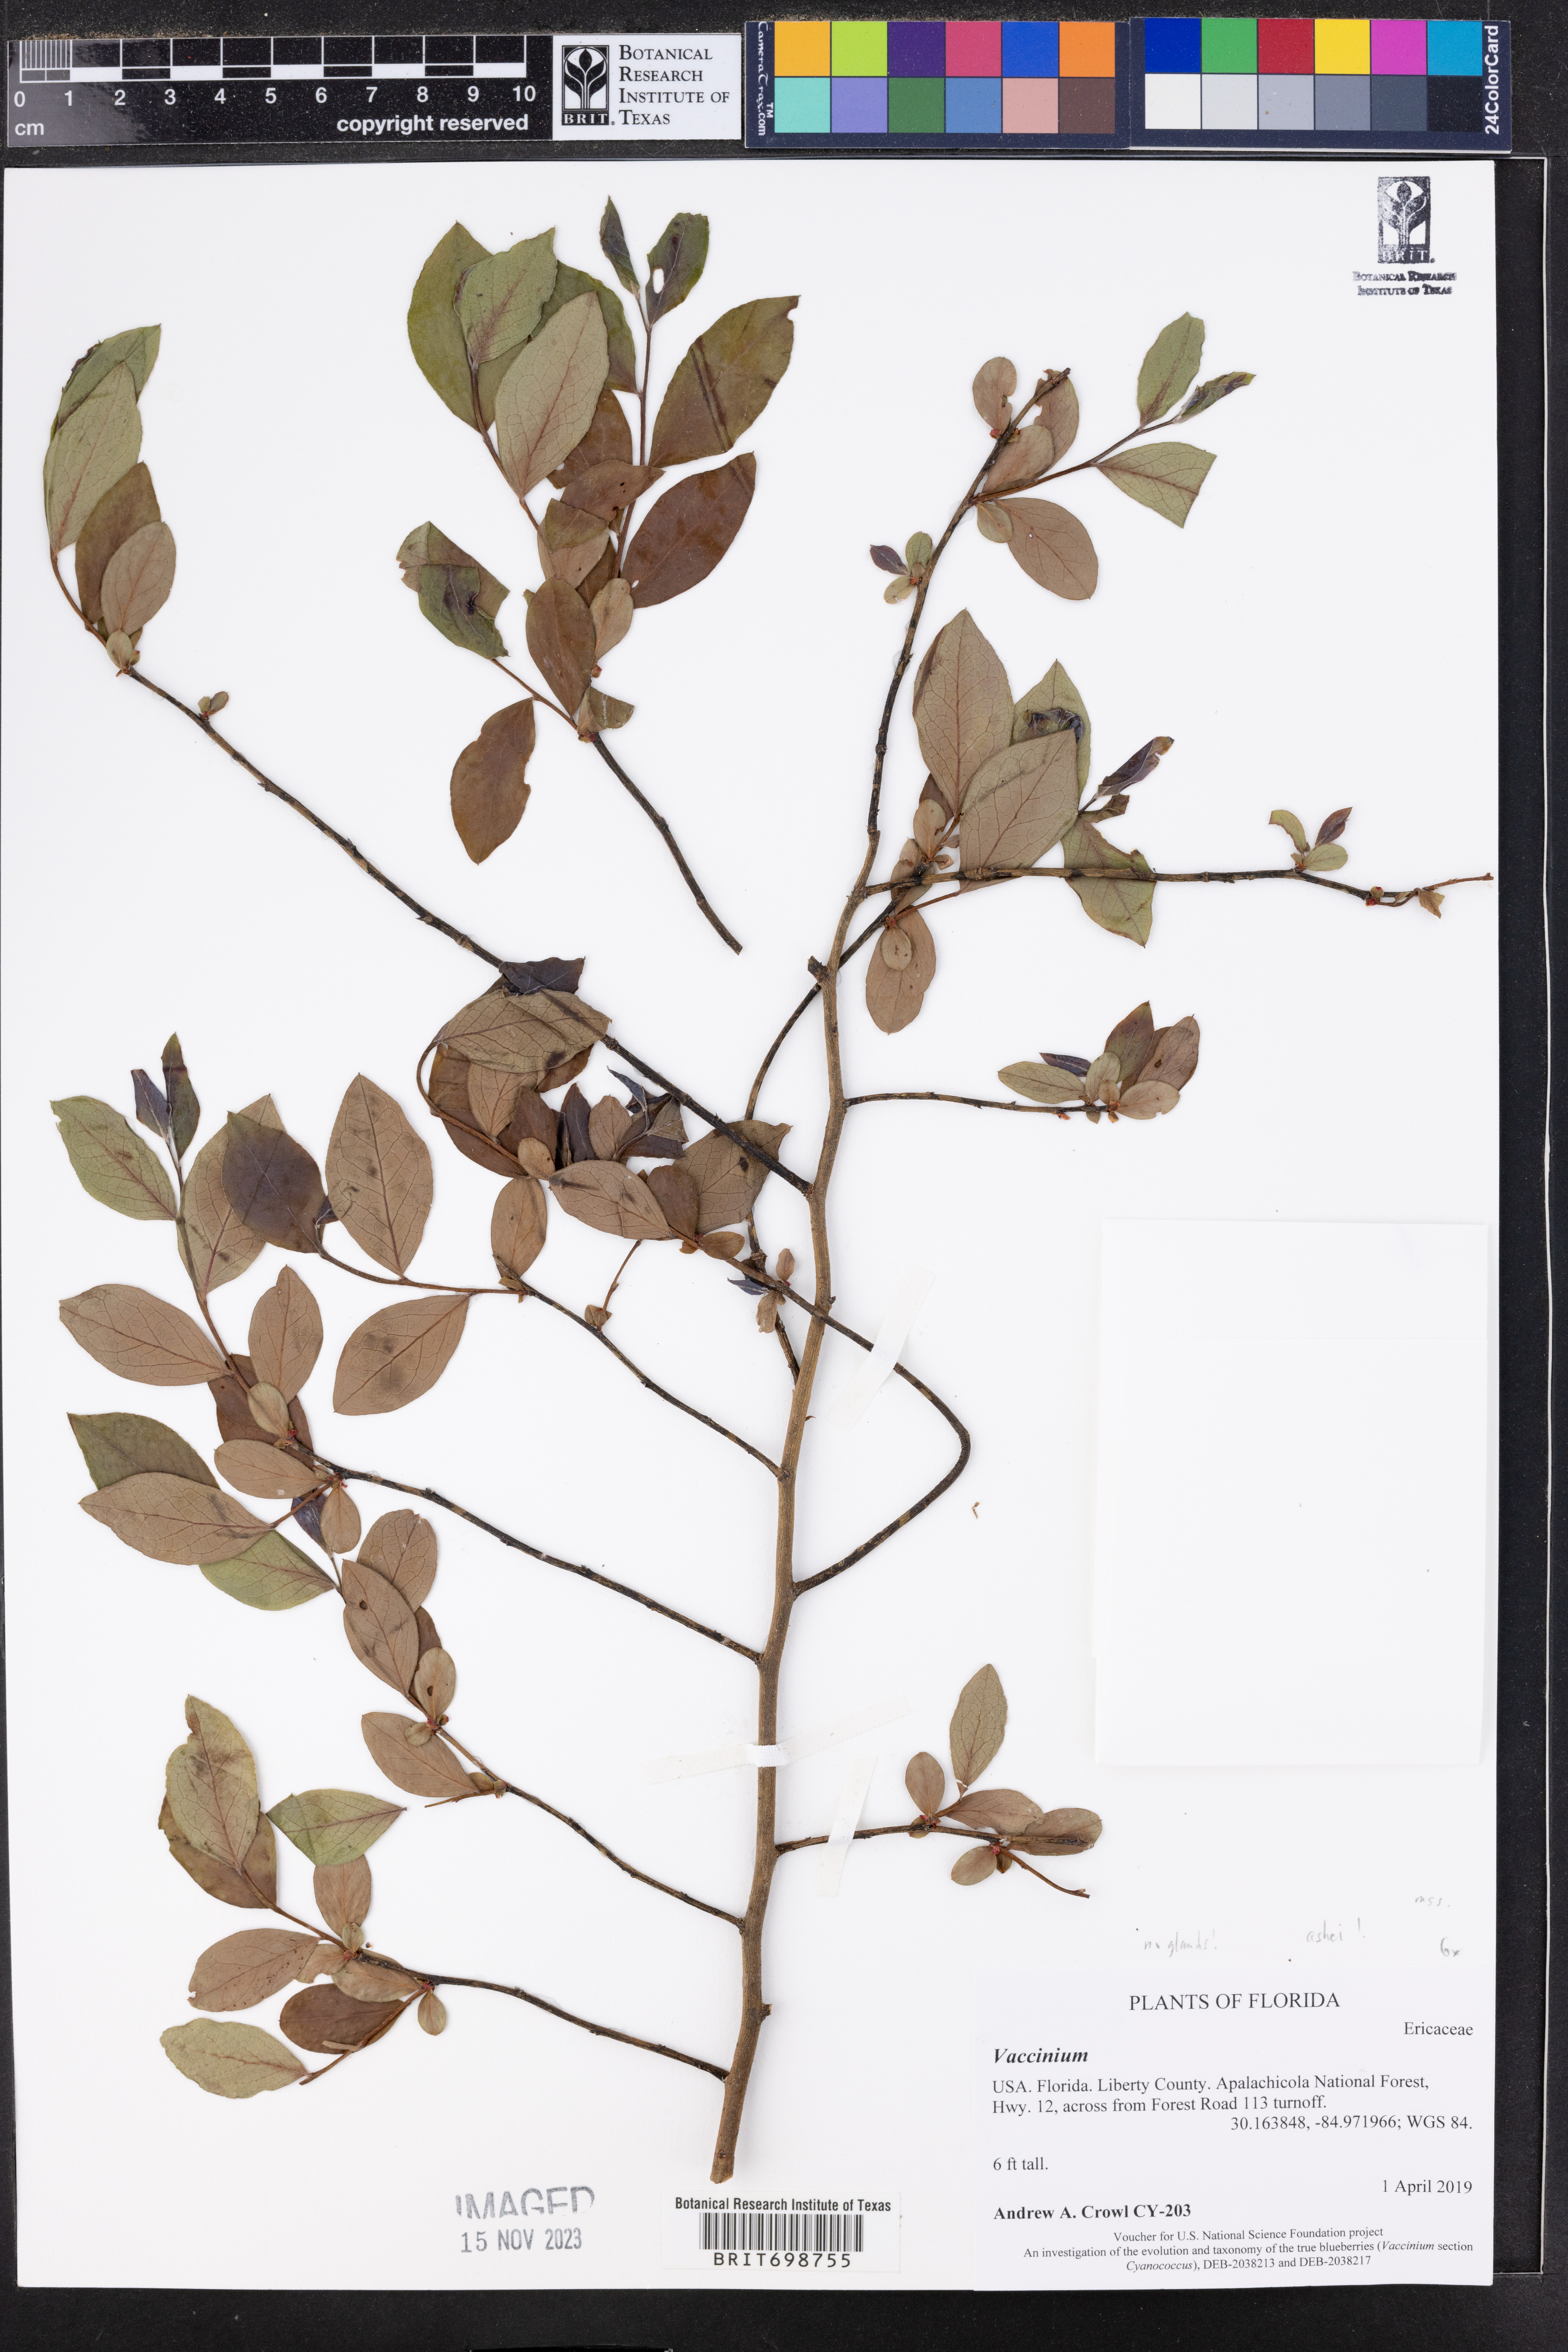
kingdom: Plantae
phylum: Tracheophyta
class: Magnoliopsida
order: Ericales
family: Ericaceae
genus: Vaccinium
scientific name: Vaccinium
